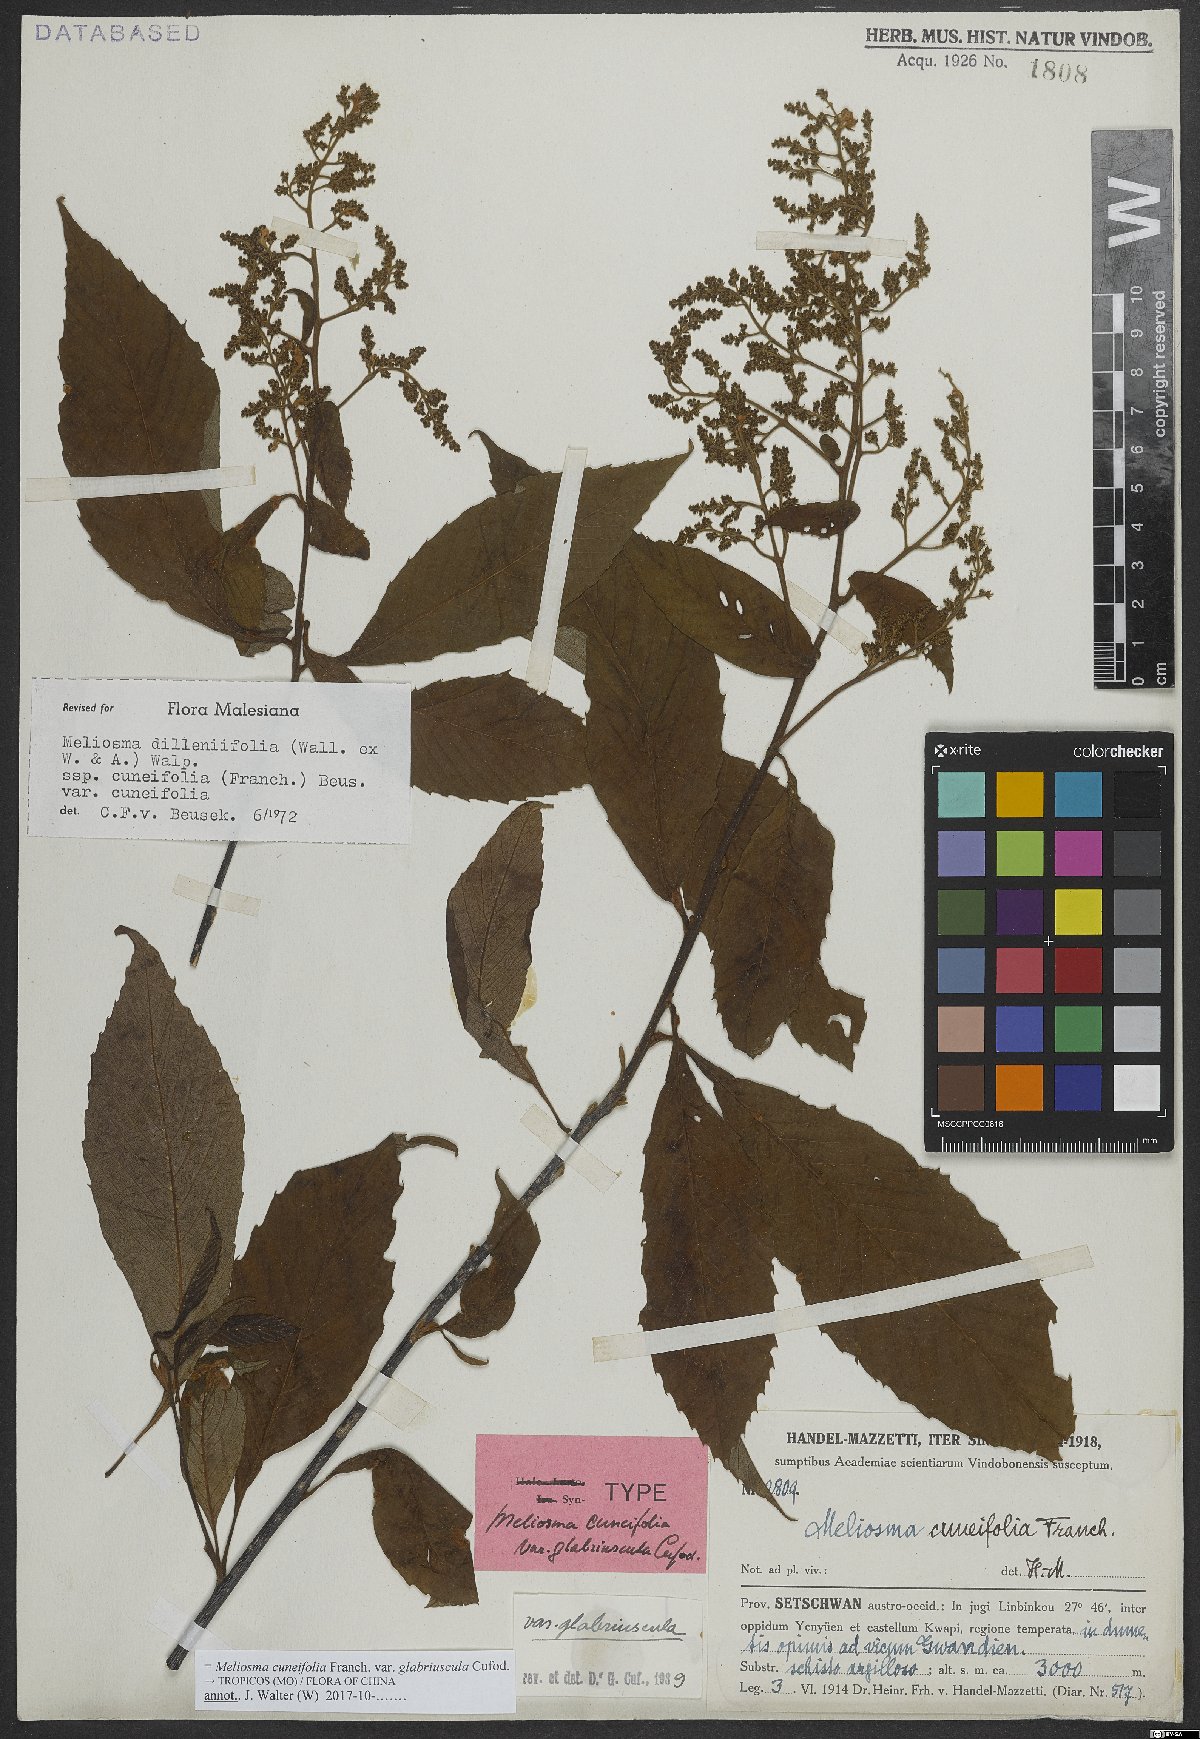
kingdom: Plantae
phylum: Tracheophyta
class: Magnoliopsida
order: Proteales
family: Sabiaceae
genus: Meliosma
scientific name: Meliosma cuneifolia
